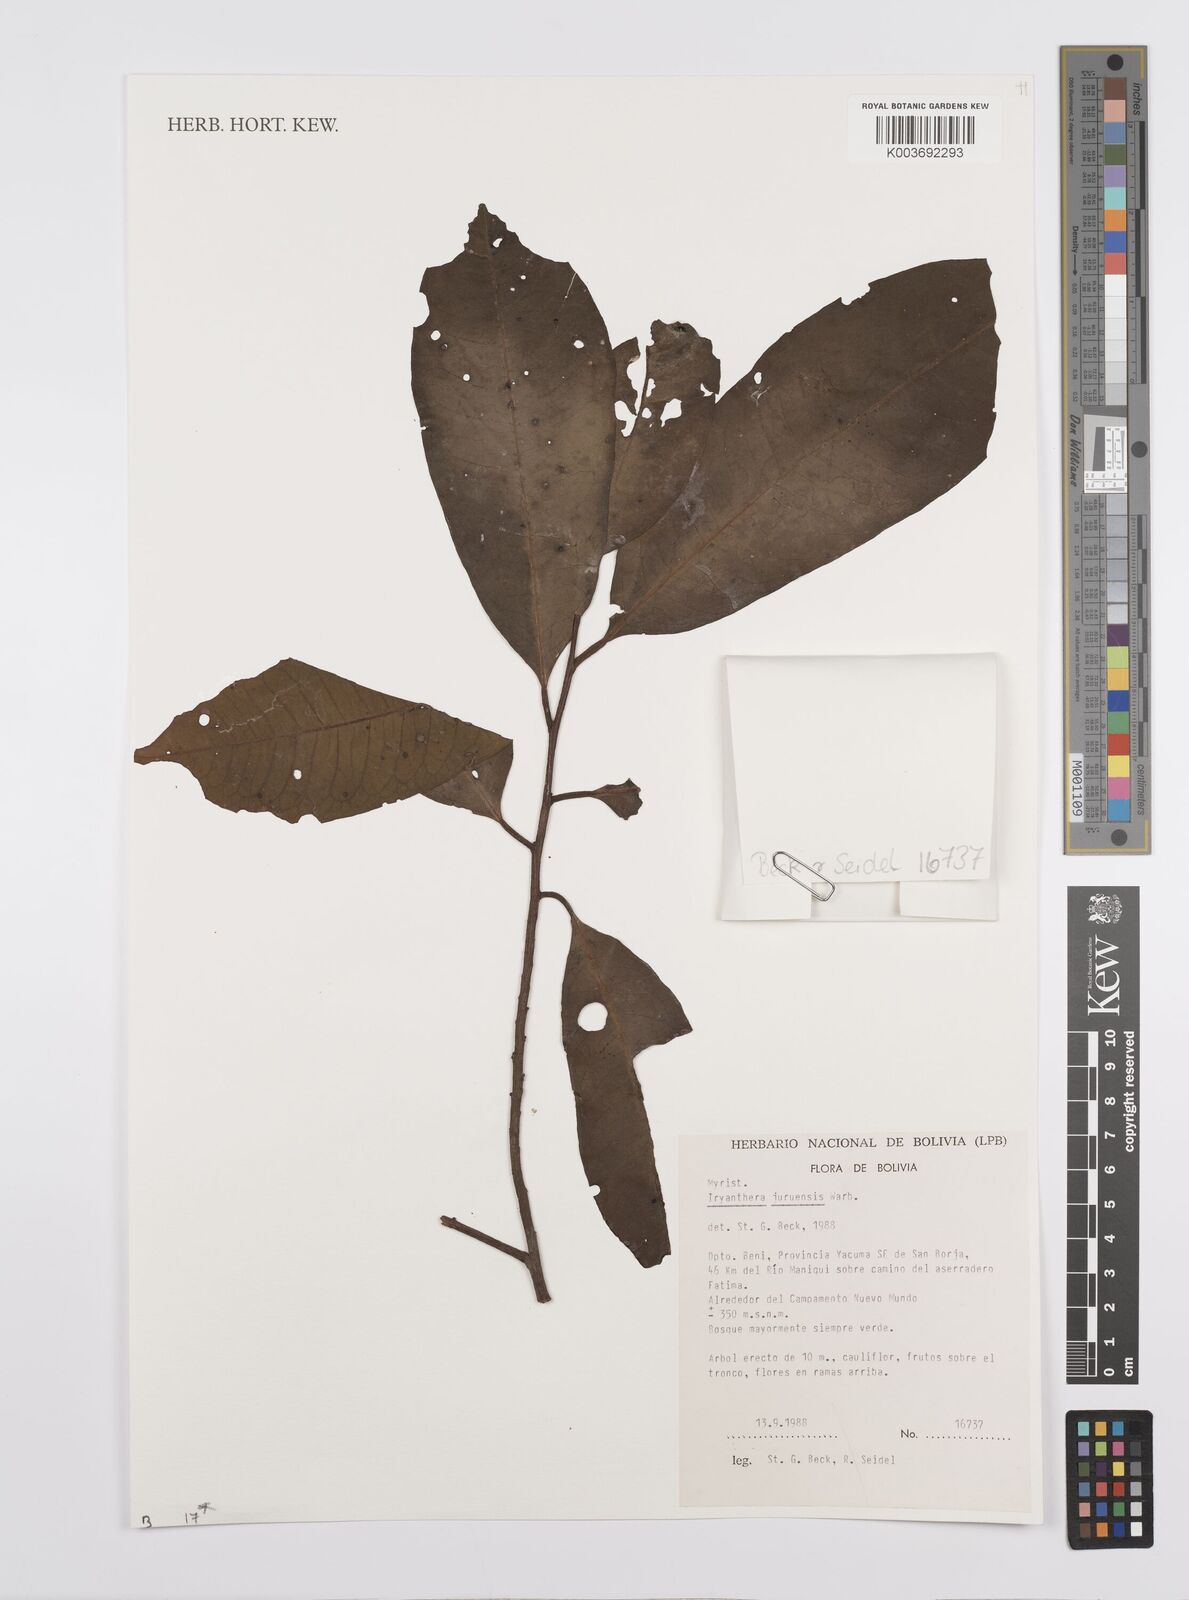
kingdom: Plantae
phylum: Tracheophyta
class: Magnoliopsida
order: Magnoliales
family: Myristicaceae
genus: Iryanthera
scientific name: Iryanthera juruensis
